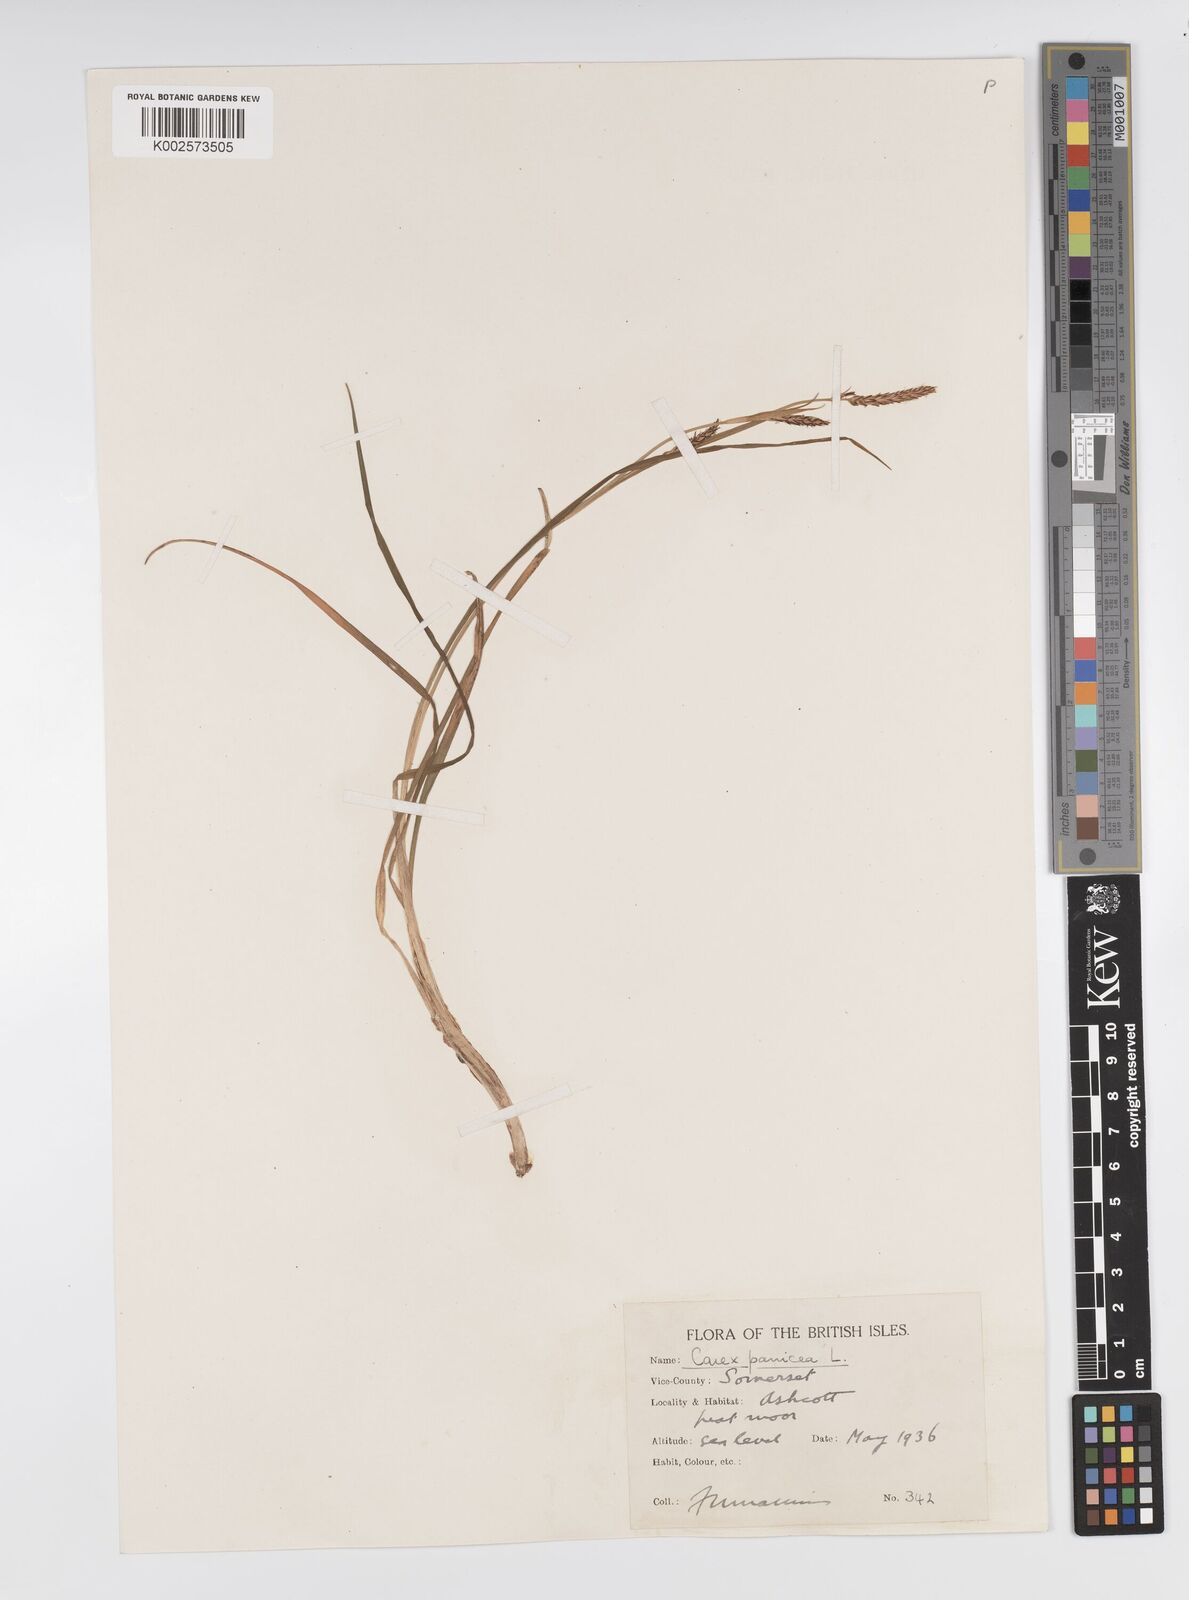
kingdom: Plantae
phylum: Tracheophyta
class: Liliopsida
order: Poales
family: Cyperaceae
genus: Carex
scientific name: Carex panicea
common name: Carnation sedge
